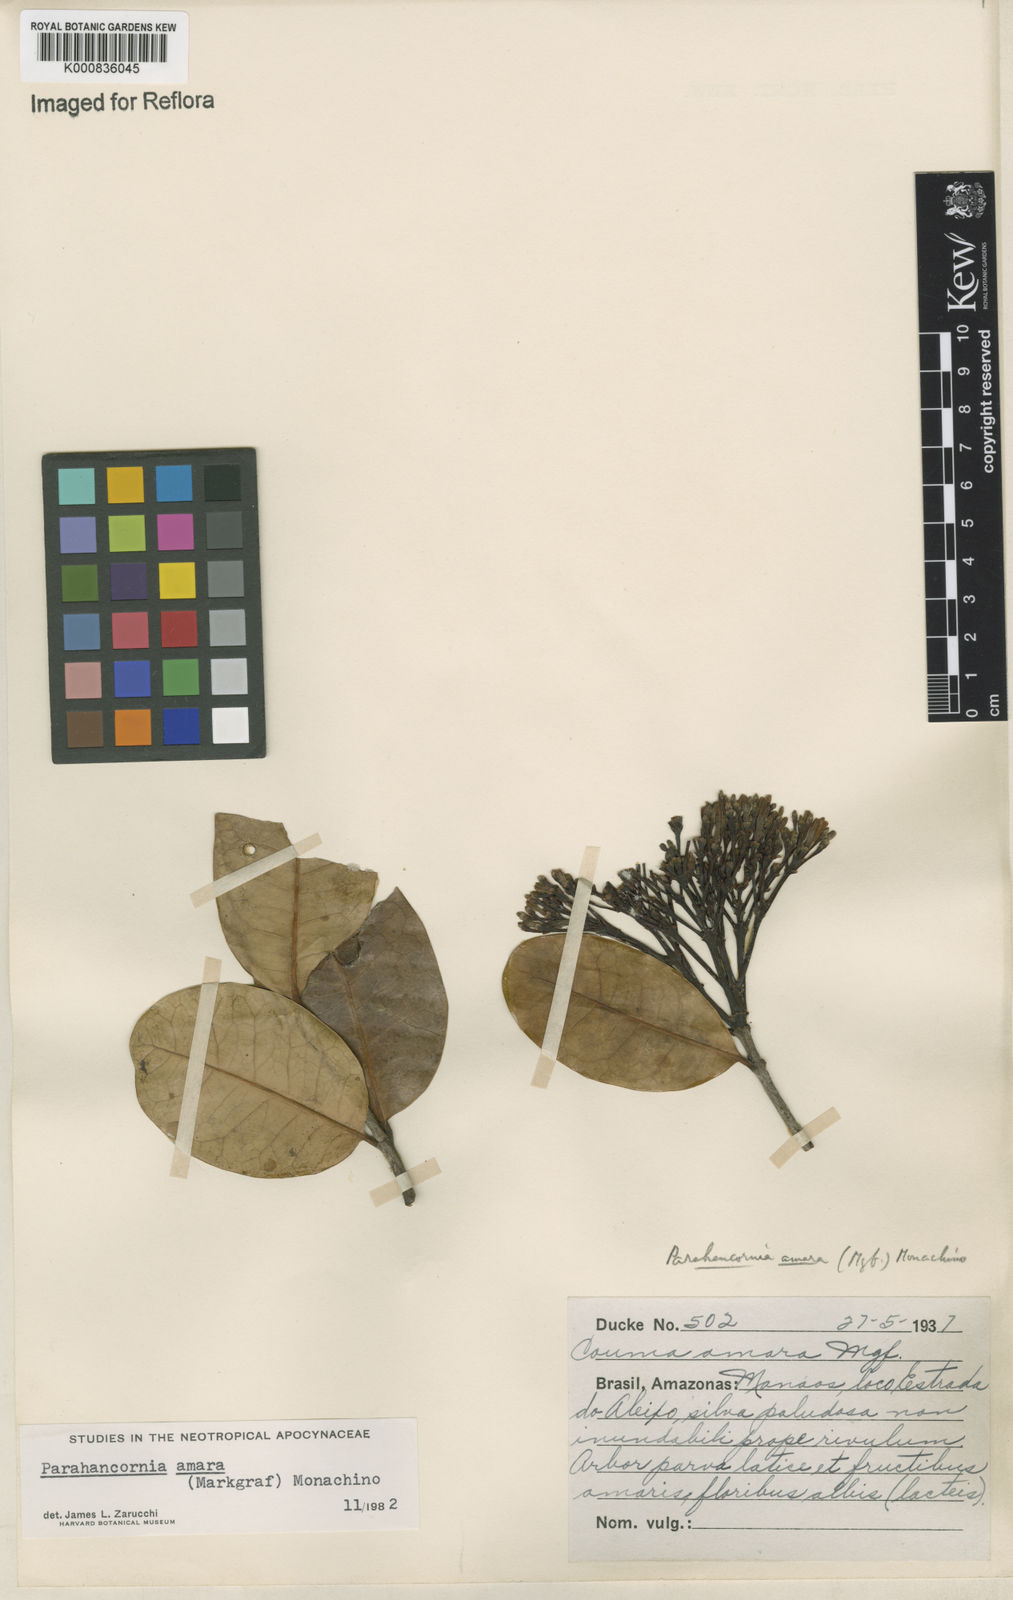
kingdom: Plantae
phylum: Tracheophyta
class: Magnoliopsida
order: Gentianales
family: Apocynaceae
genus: Parahancornia
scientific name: Parahancornia amara
